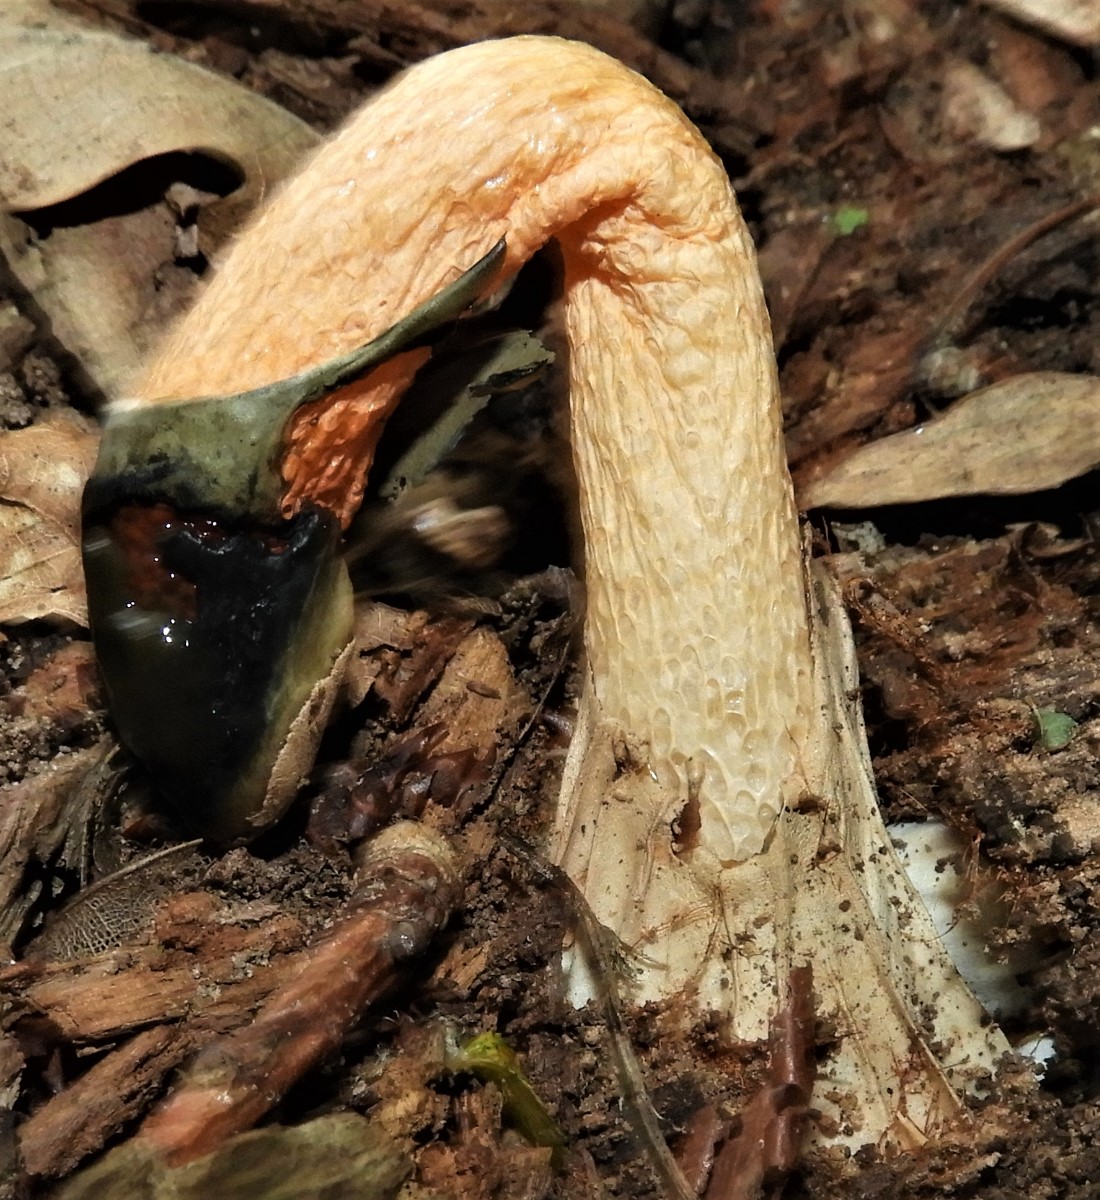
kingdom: Fungi
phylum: Basidiomycota
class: Agaricomycetes
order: Phallales
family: Phallaceae
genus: Mutinus
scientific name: Mutinus caninus
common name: hunde-stinksvamp
